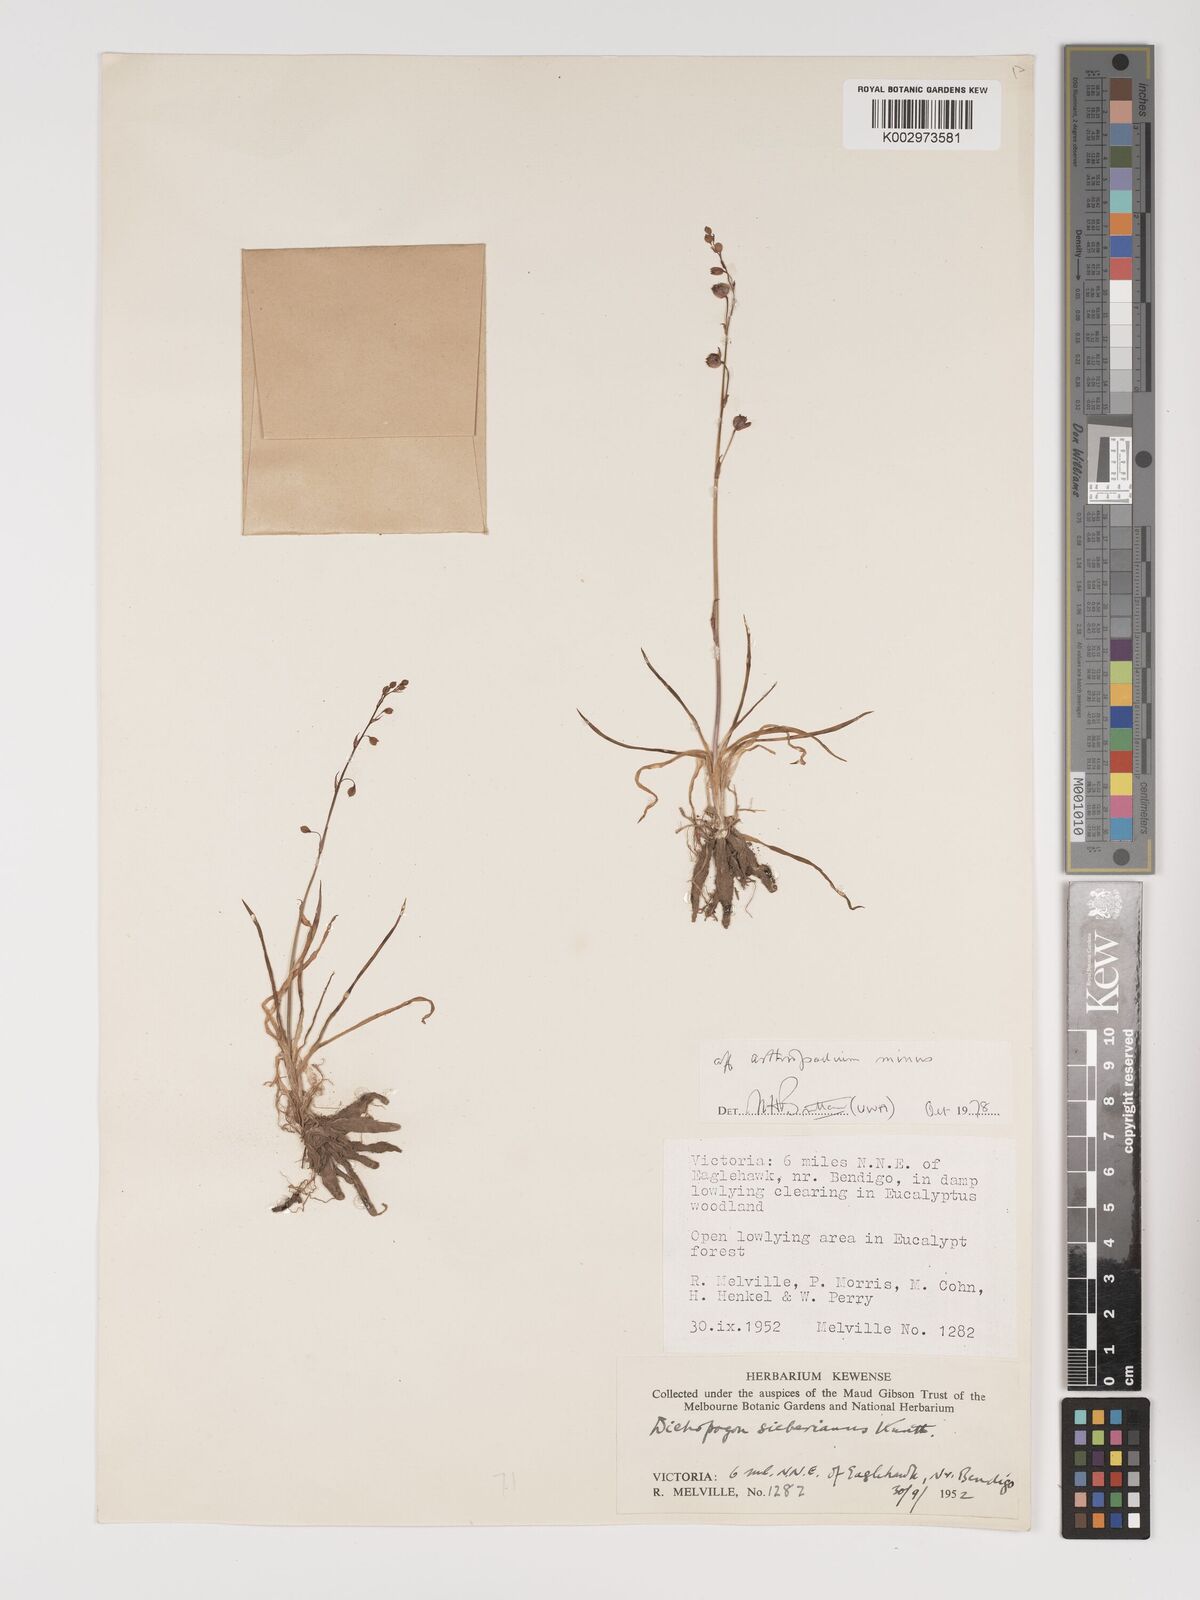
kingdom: Plantae
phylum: Tracheophyta
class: Liliopsida
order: Asparagales
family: Asparagaceae
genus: Arthropodium
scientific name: Arthropodium minus
